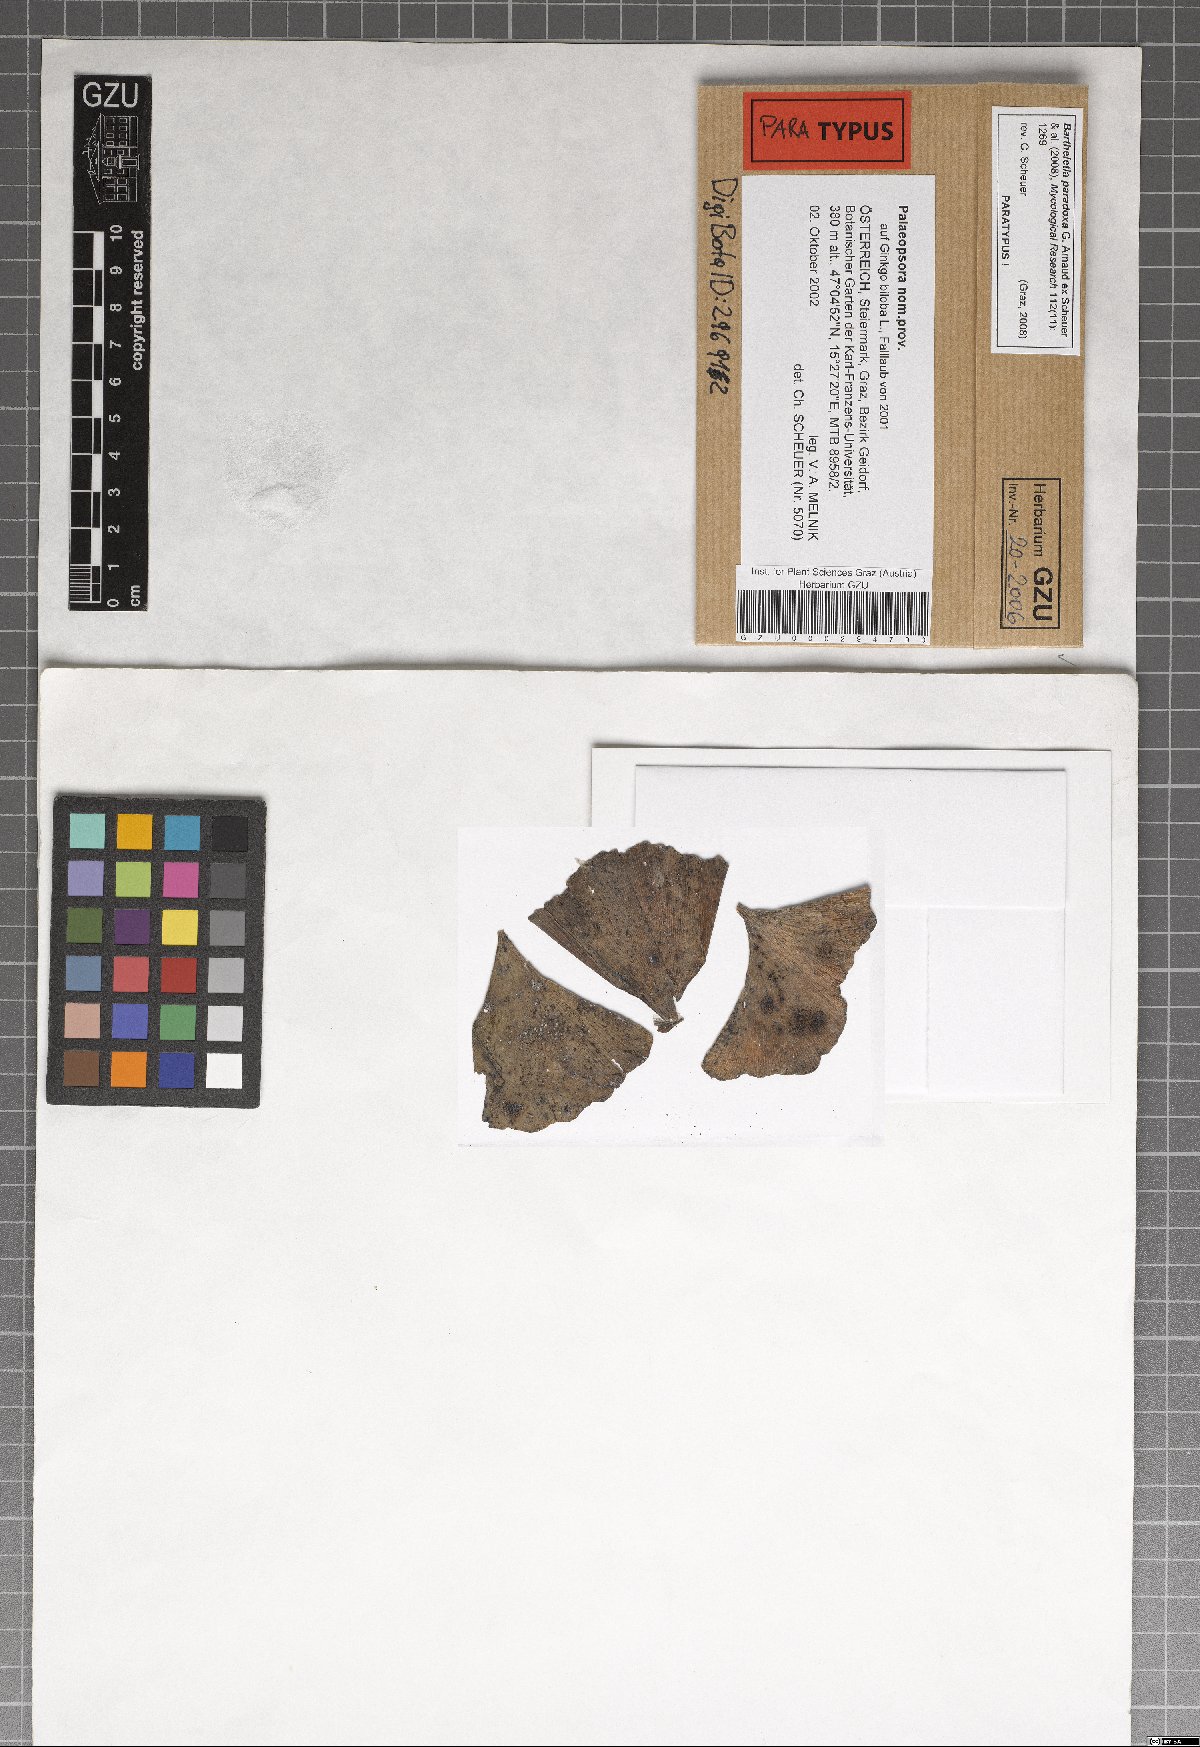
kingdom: Fungi
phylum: Basidiomycota
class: Wallemiomycetes
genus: Bartheletia
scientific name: Bartheletia paradoxa
